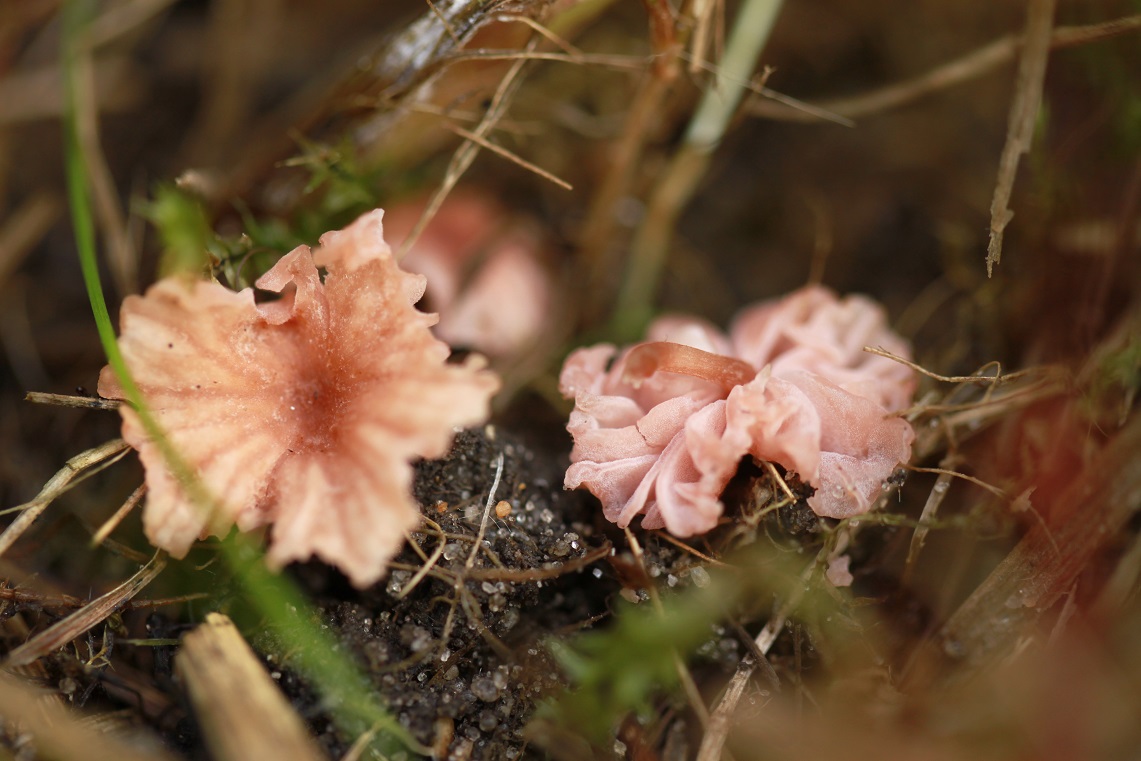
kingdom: Fungi
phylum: Basidiomycota
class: Agaricomycetes
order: Agaricales
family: Hydnangiaceae
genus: Laccaria
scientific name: Laccaria tortilis
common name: krybende ametysthat
